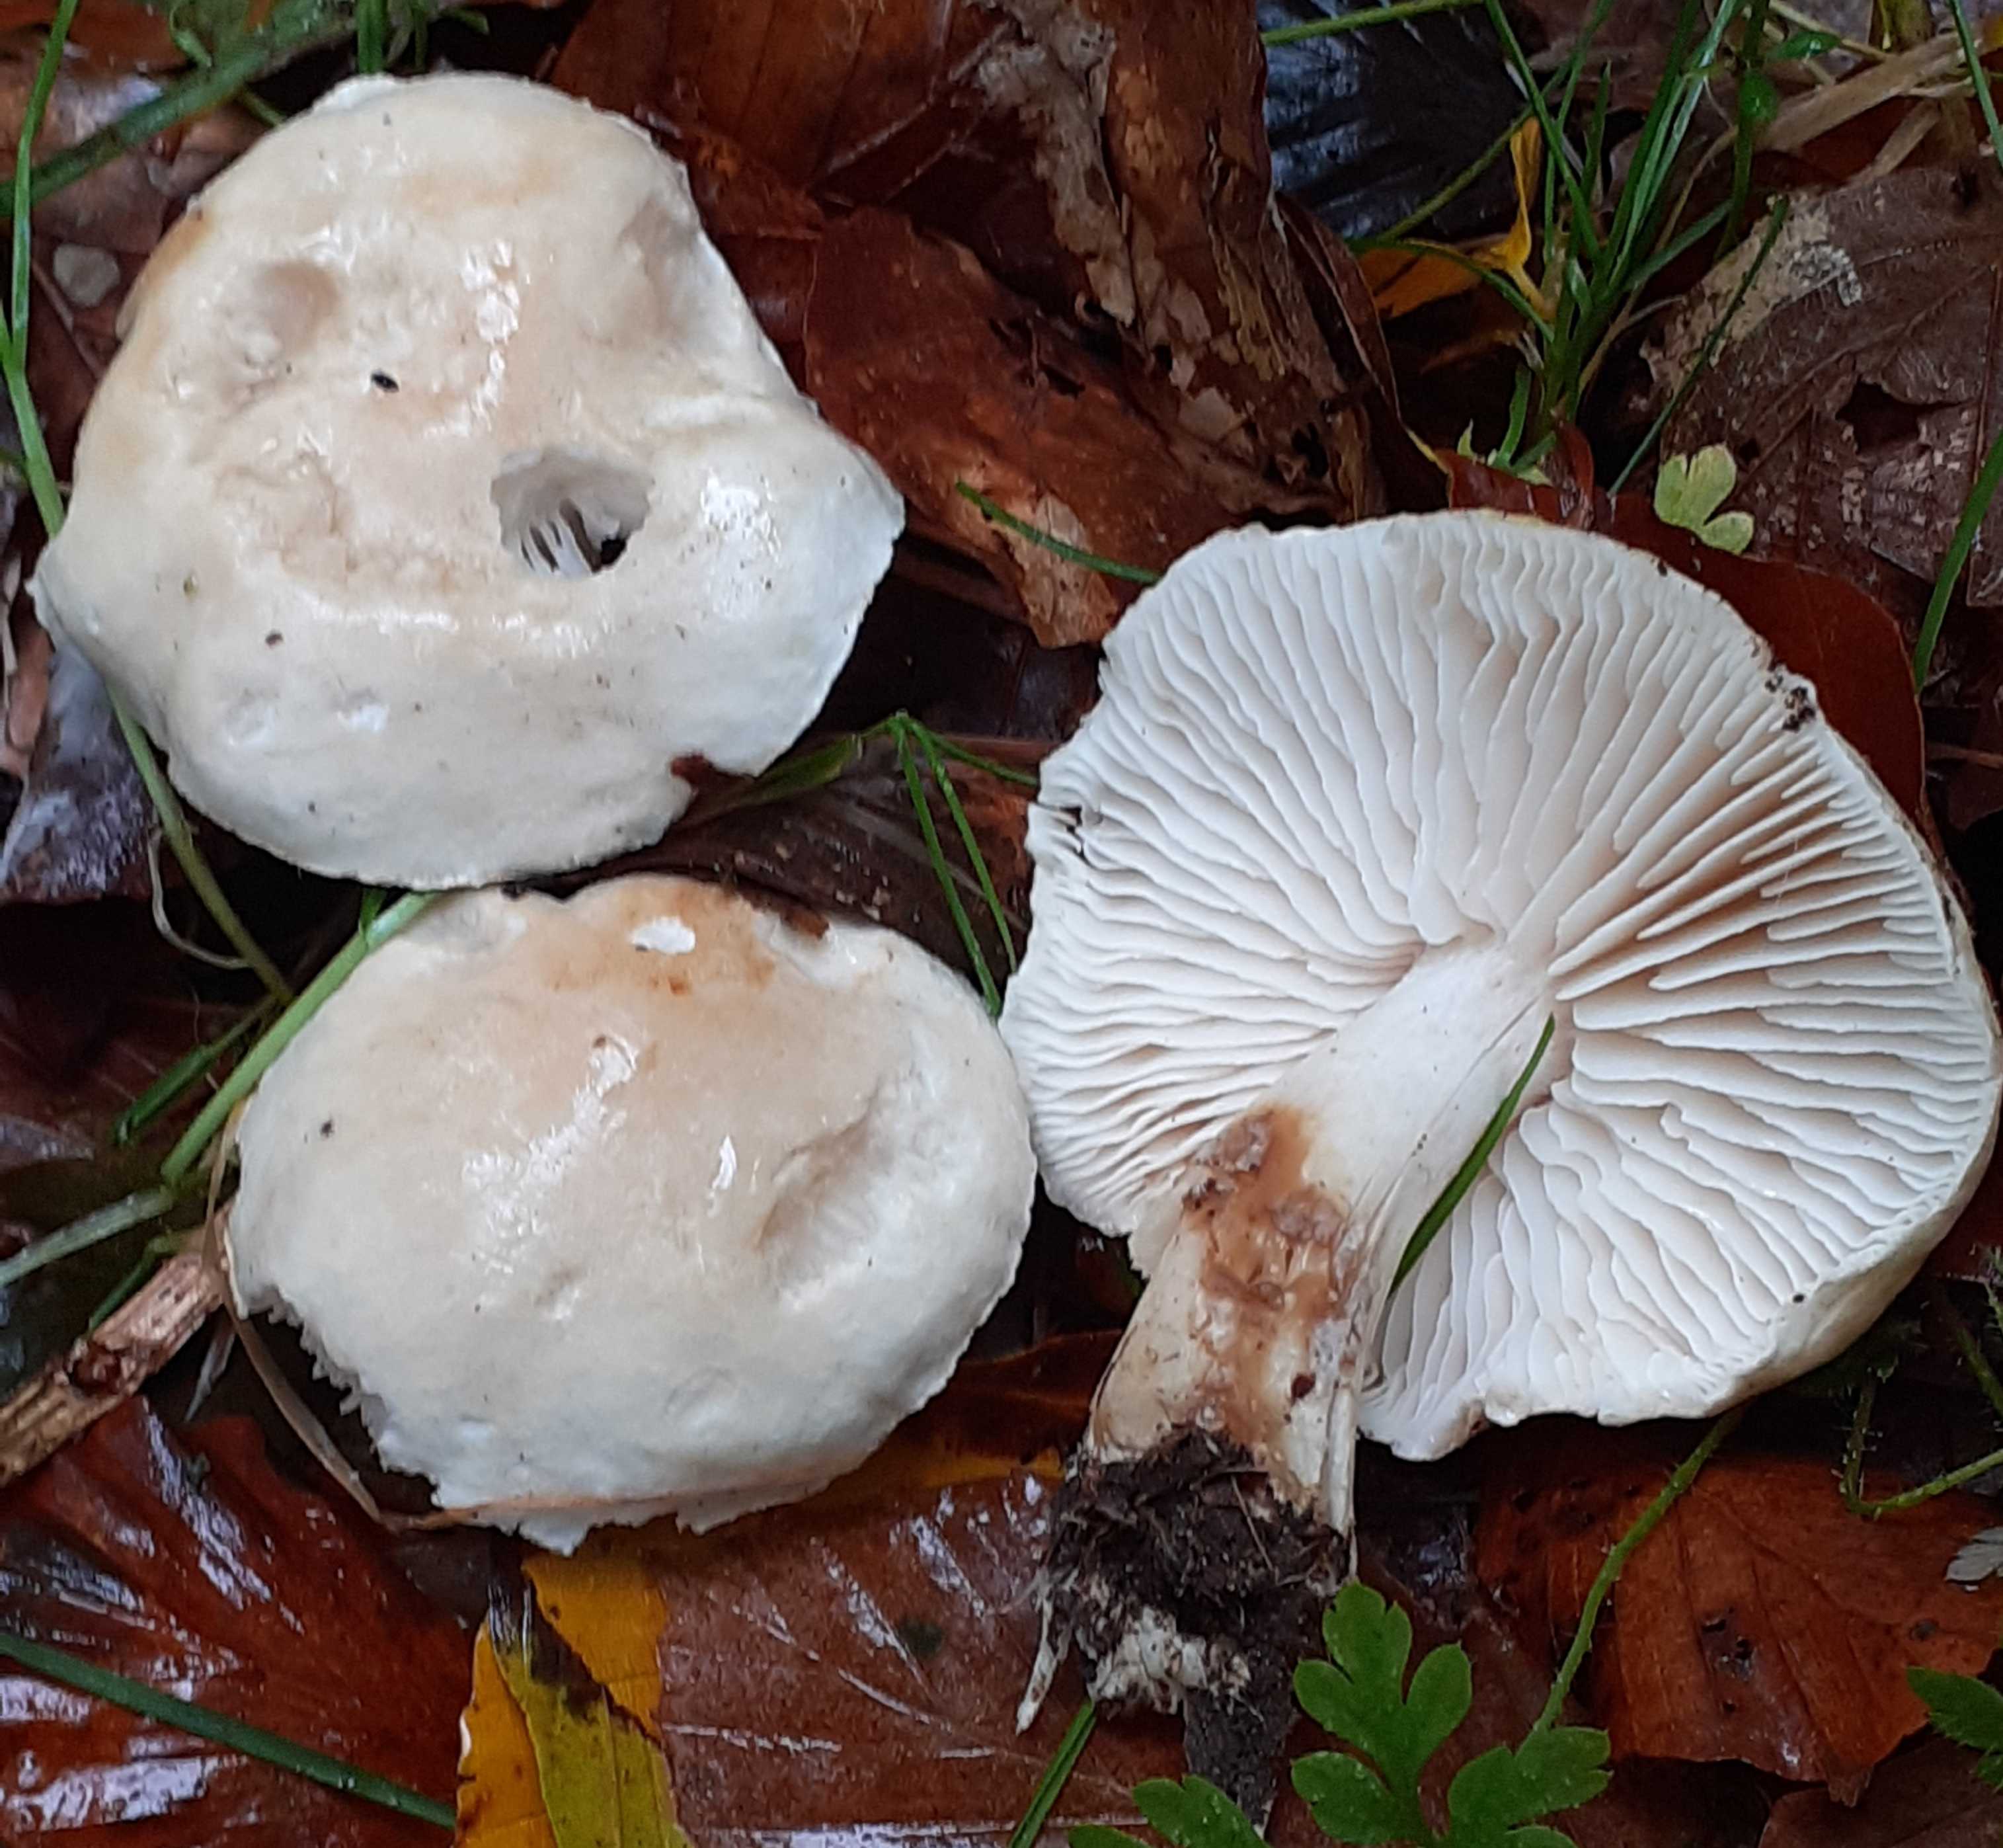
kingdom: Fungi
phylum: Basidiomycota
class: Agaricomycetes
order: Agaricales
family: Tricholomataceae
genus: Tricholoma
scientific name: Tricholoma lascivum
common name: stinkende ridderhat
